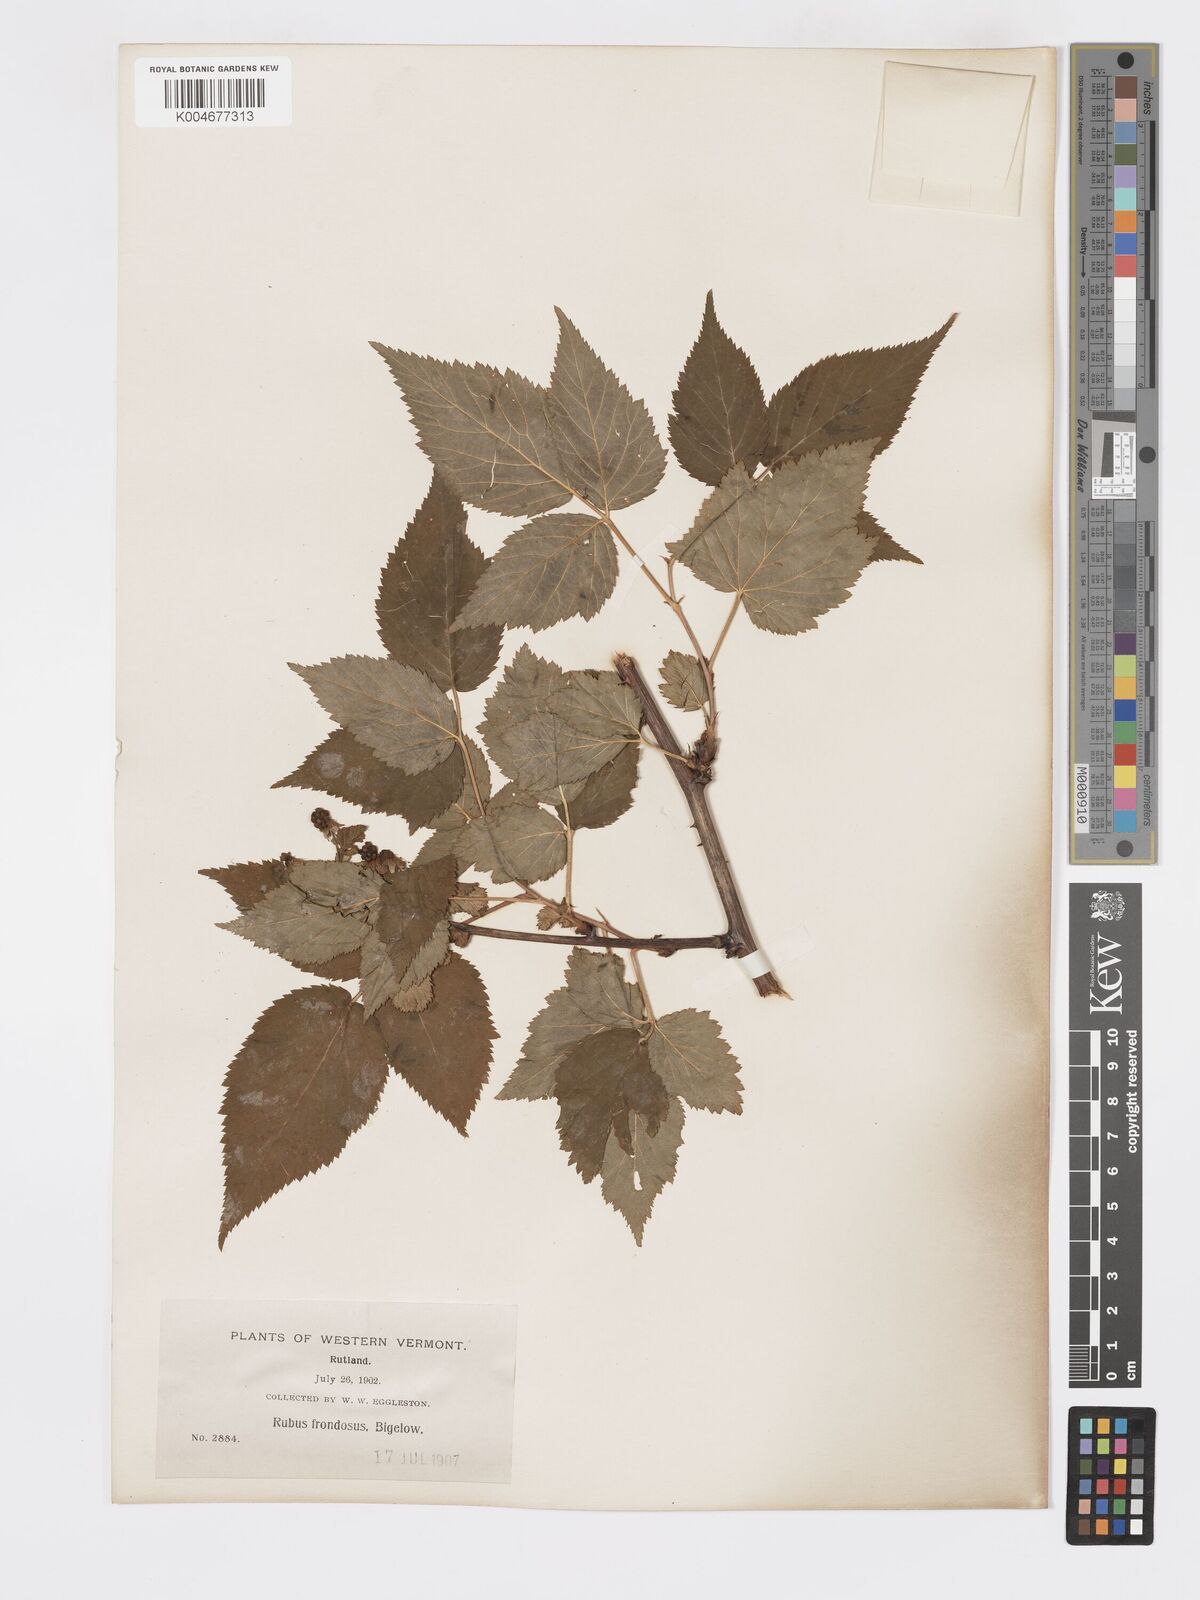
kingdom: Plantae
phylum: Tracheophyta
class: Magnoliopsida
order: Rosales
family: Rosaceae
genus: Rubus
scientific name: Rubus frondosus
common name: Yankee blackberry
